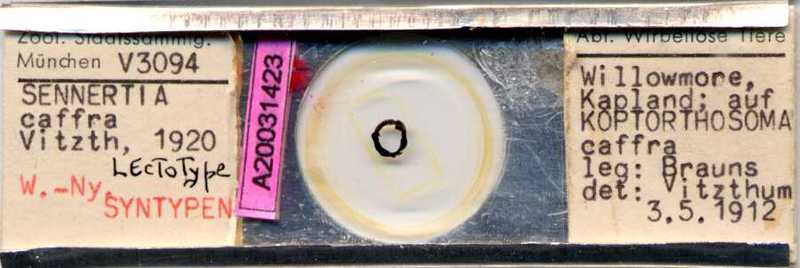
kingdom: Animalia
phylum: Arthropoda
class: Arachnida
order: Sarcoptiformes
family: Chaetodactylidae
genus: Sennertia
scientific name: Sennertia caffra
